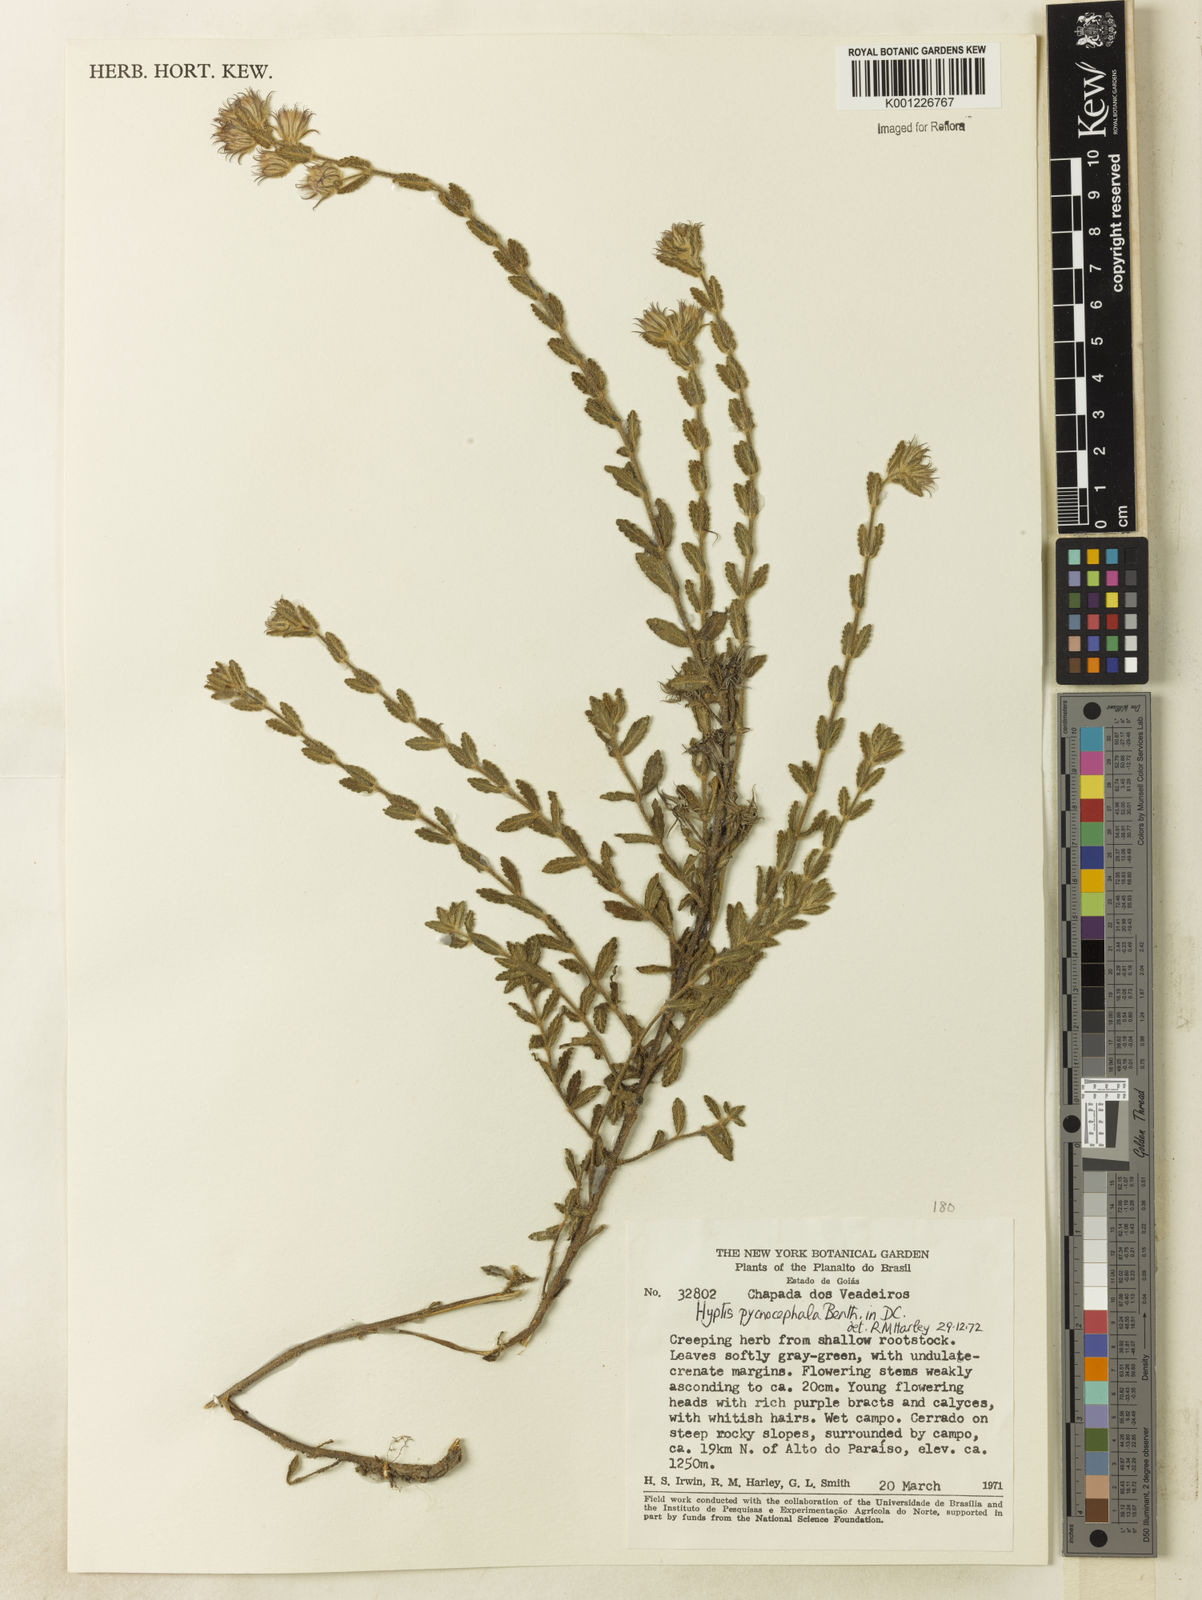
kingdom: Plantae
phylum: Tracheophyta
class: Magnoliopsida
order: Lamiales
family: Lamiaceae
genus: Hyptis
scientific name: Hyptis pycnocephala
